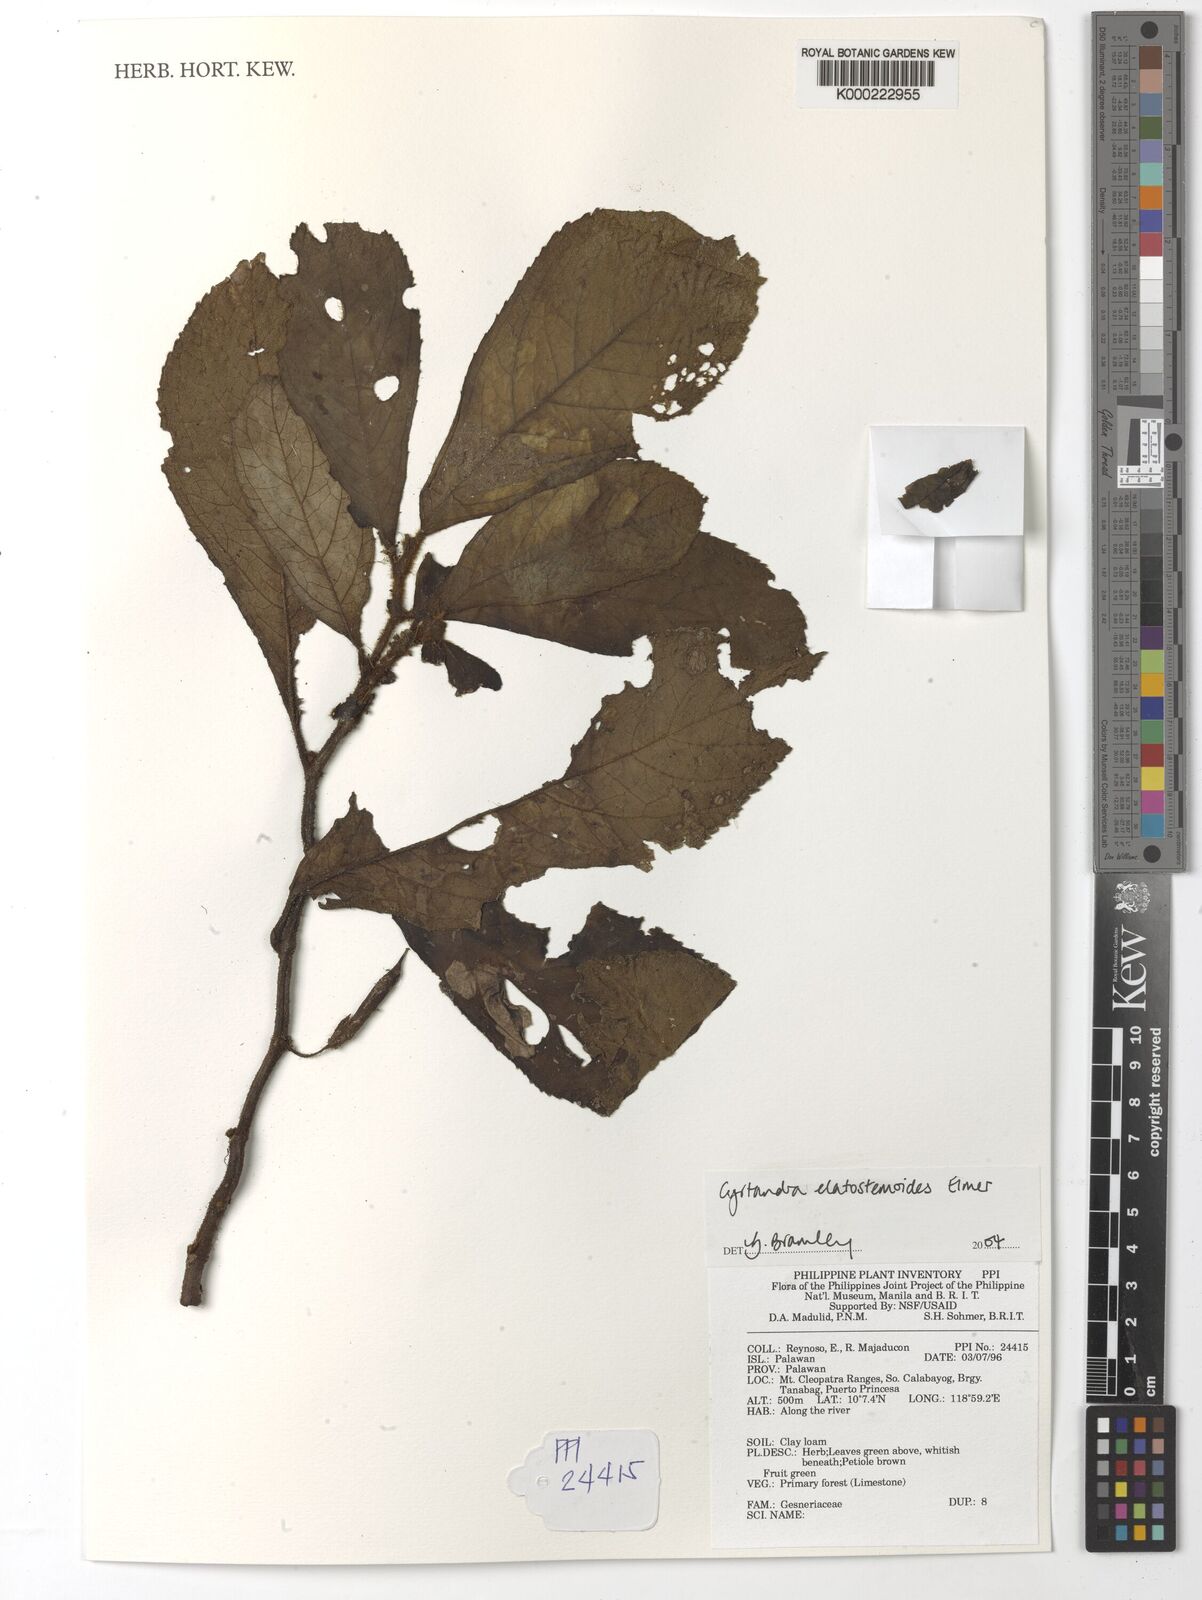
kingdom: Plantae
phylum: Tracheophyta
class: Magnoliopsida
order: Lamiales
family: Gesneriaceae
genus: Cyrtandra
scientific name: Cyrtandra elatostemmoides
